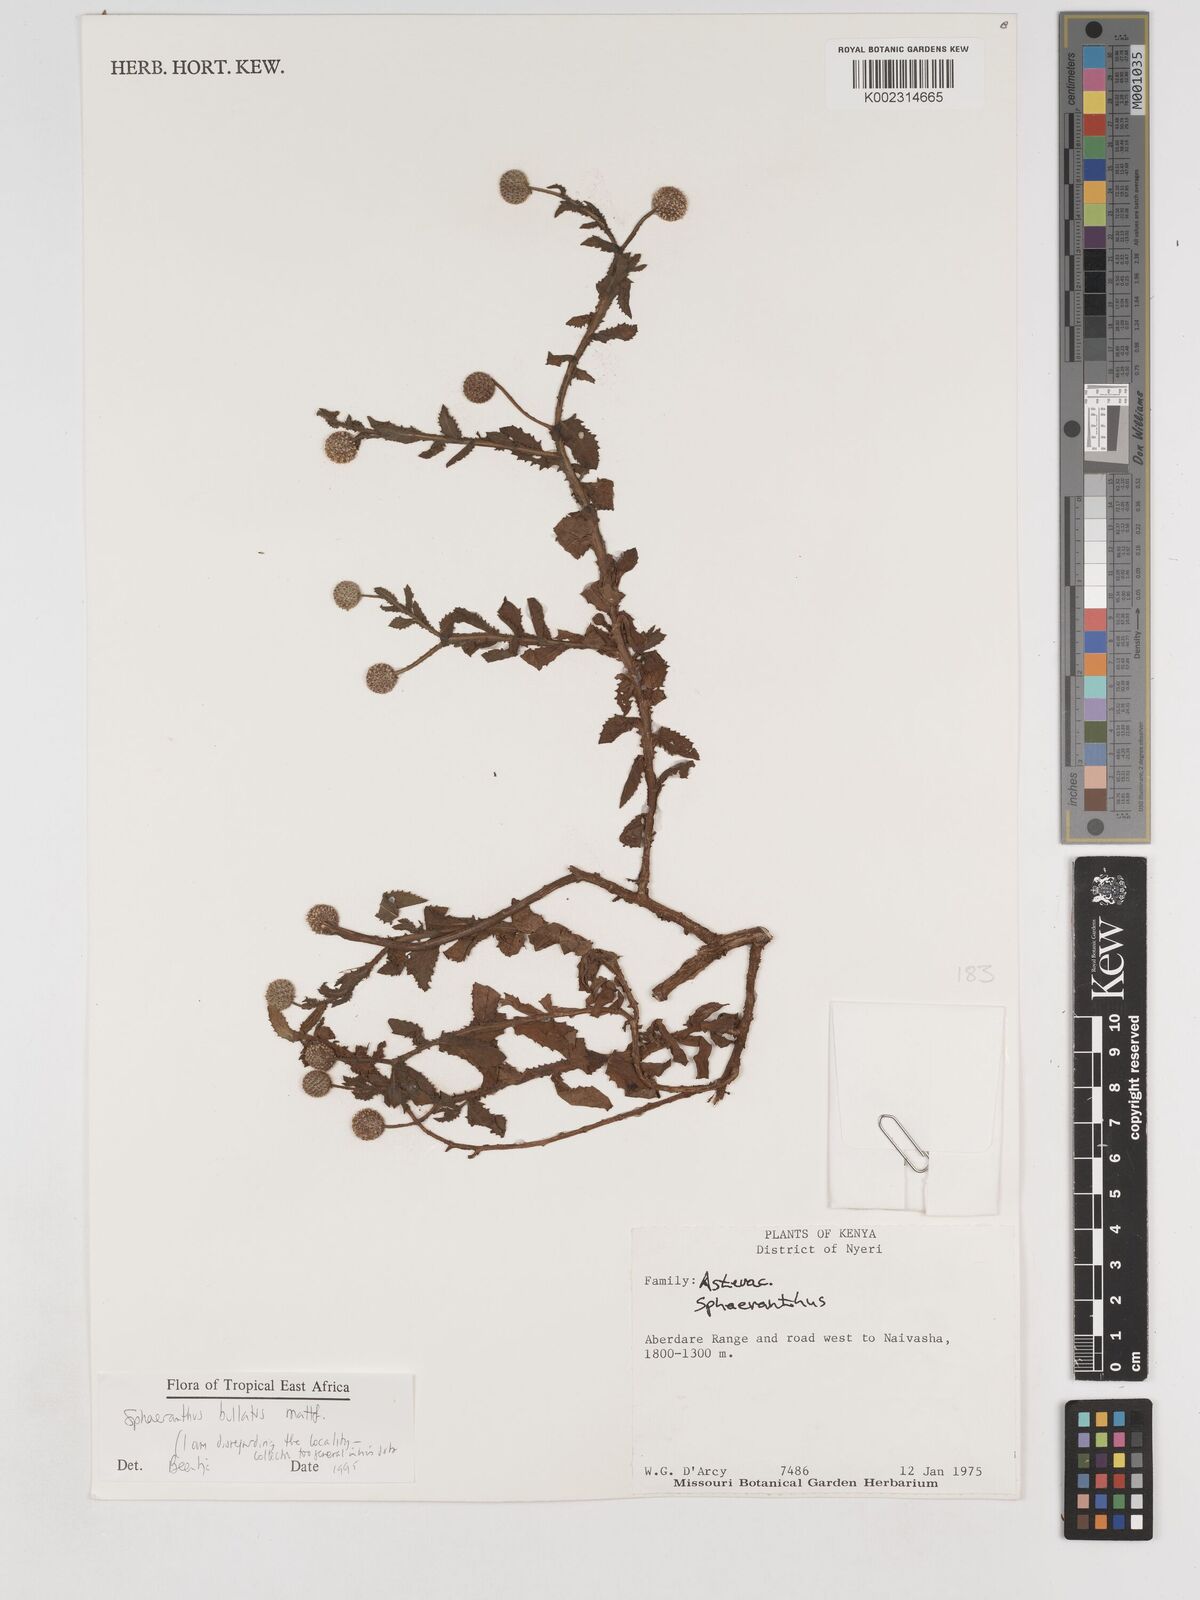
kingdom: Plantae
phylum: Tracheophyta
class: Magnoliopsida
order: Asterales
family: Asteraceae
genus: Sphaeranthus
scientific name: Sphaeranthus bullatus
